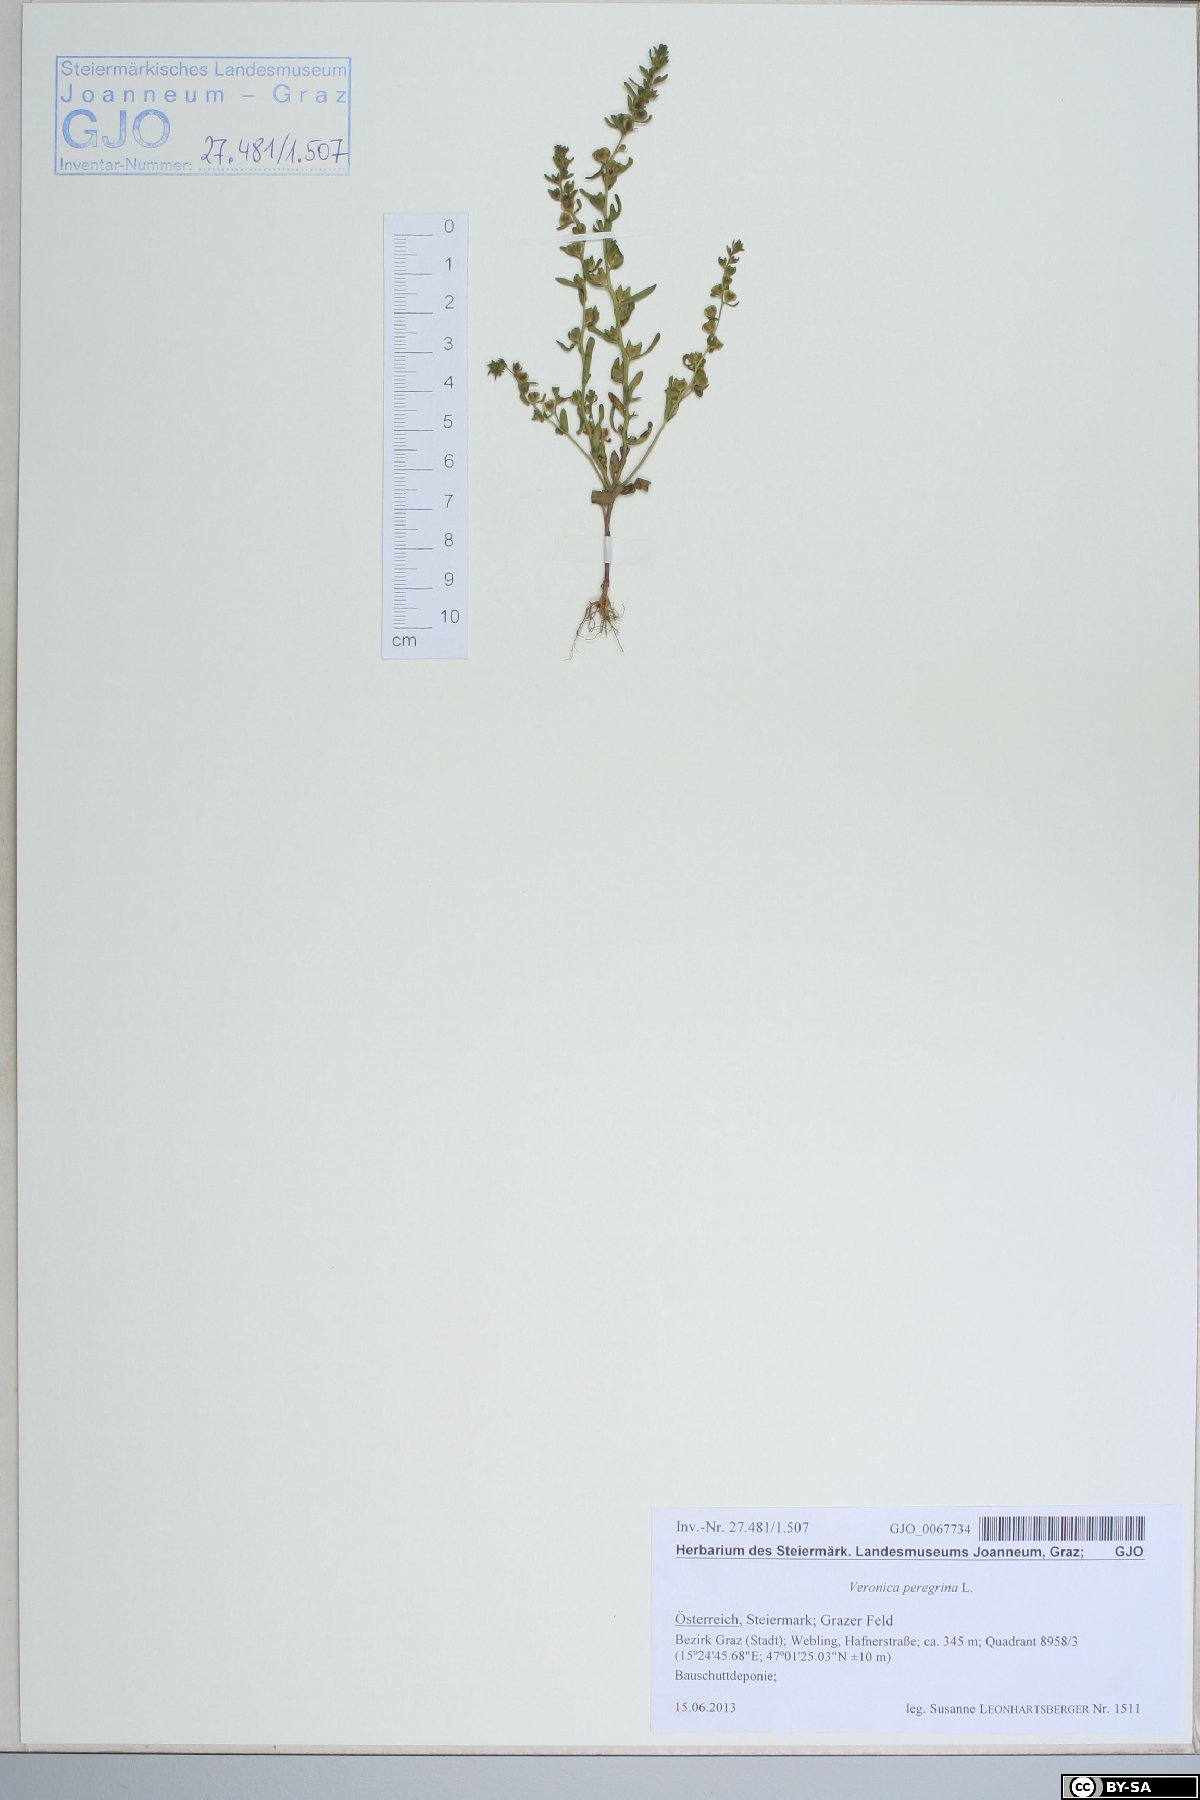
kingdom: Plantae
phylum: Tracheophyta
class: Magnoliopsida
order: Lamiales
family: Plantaginaceae
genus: Veronica
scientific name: Veronica peregrina
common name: Neckweed
